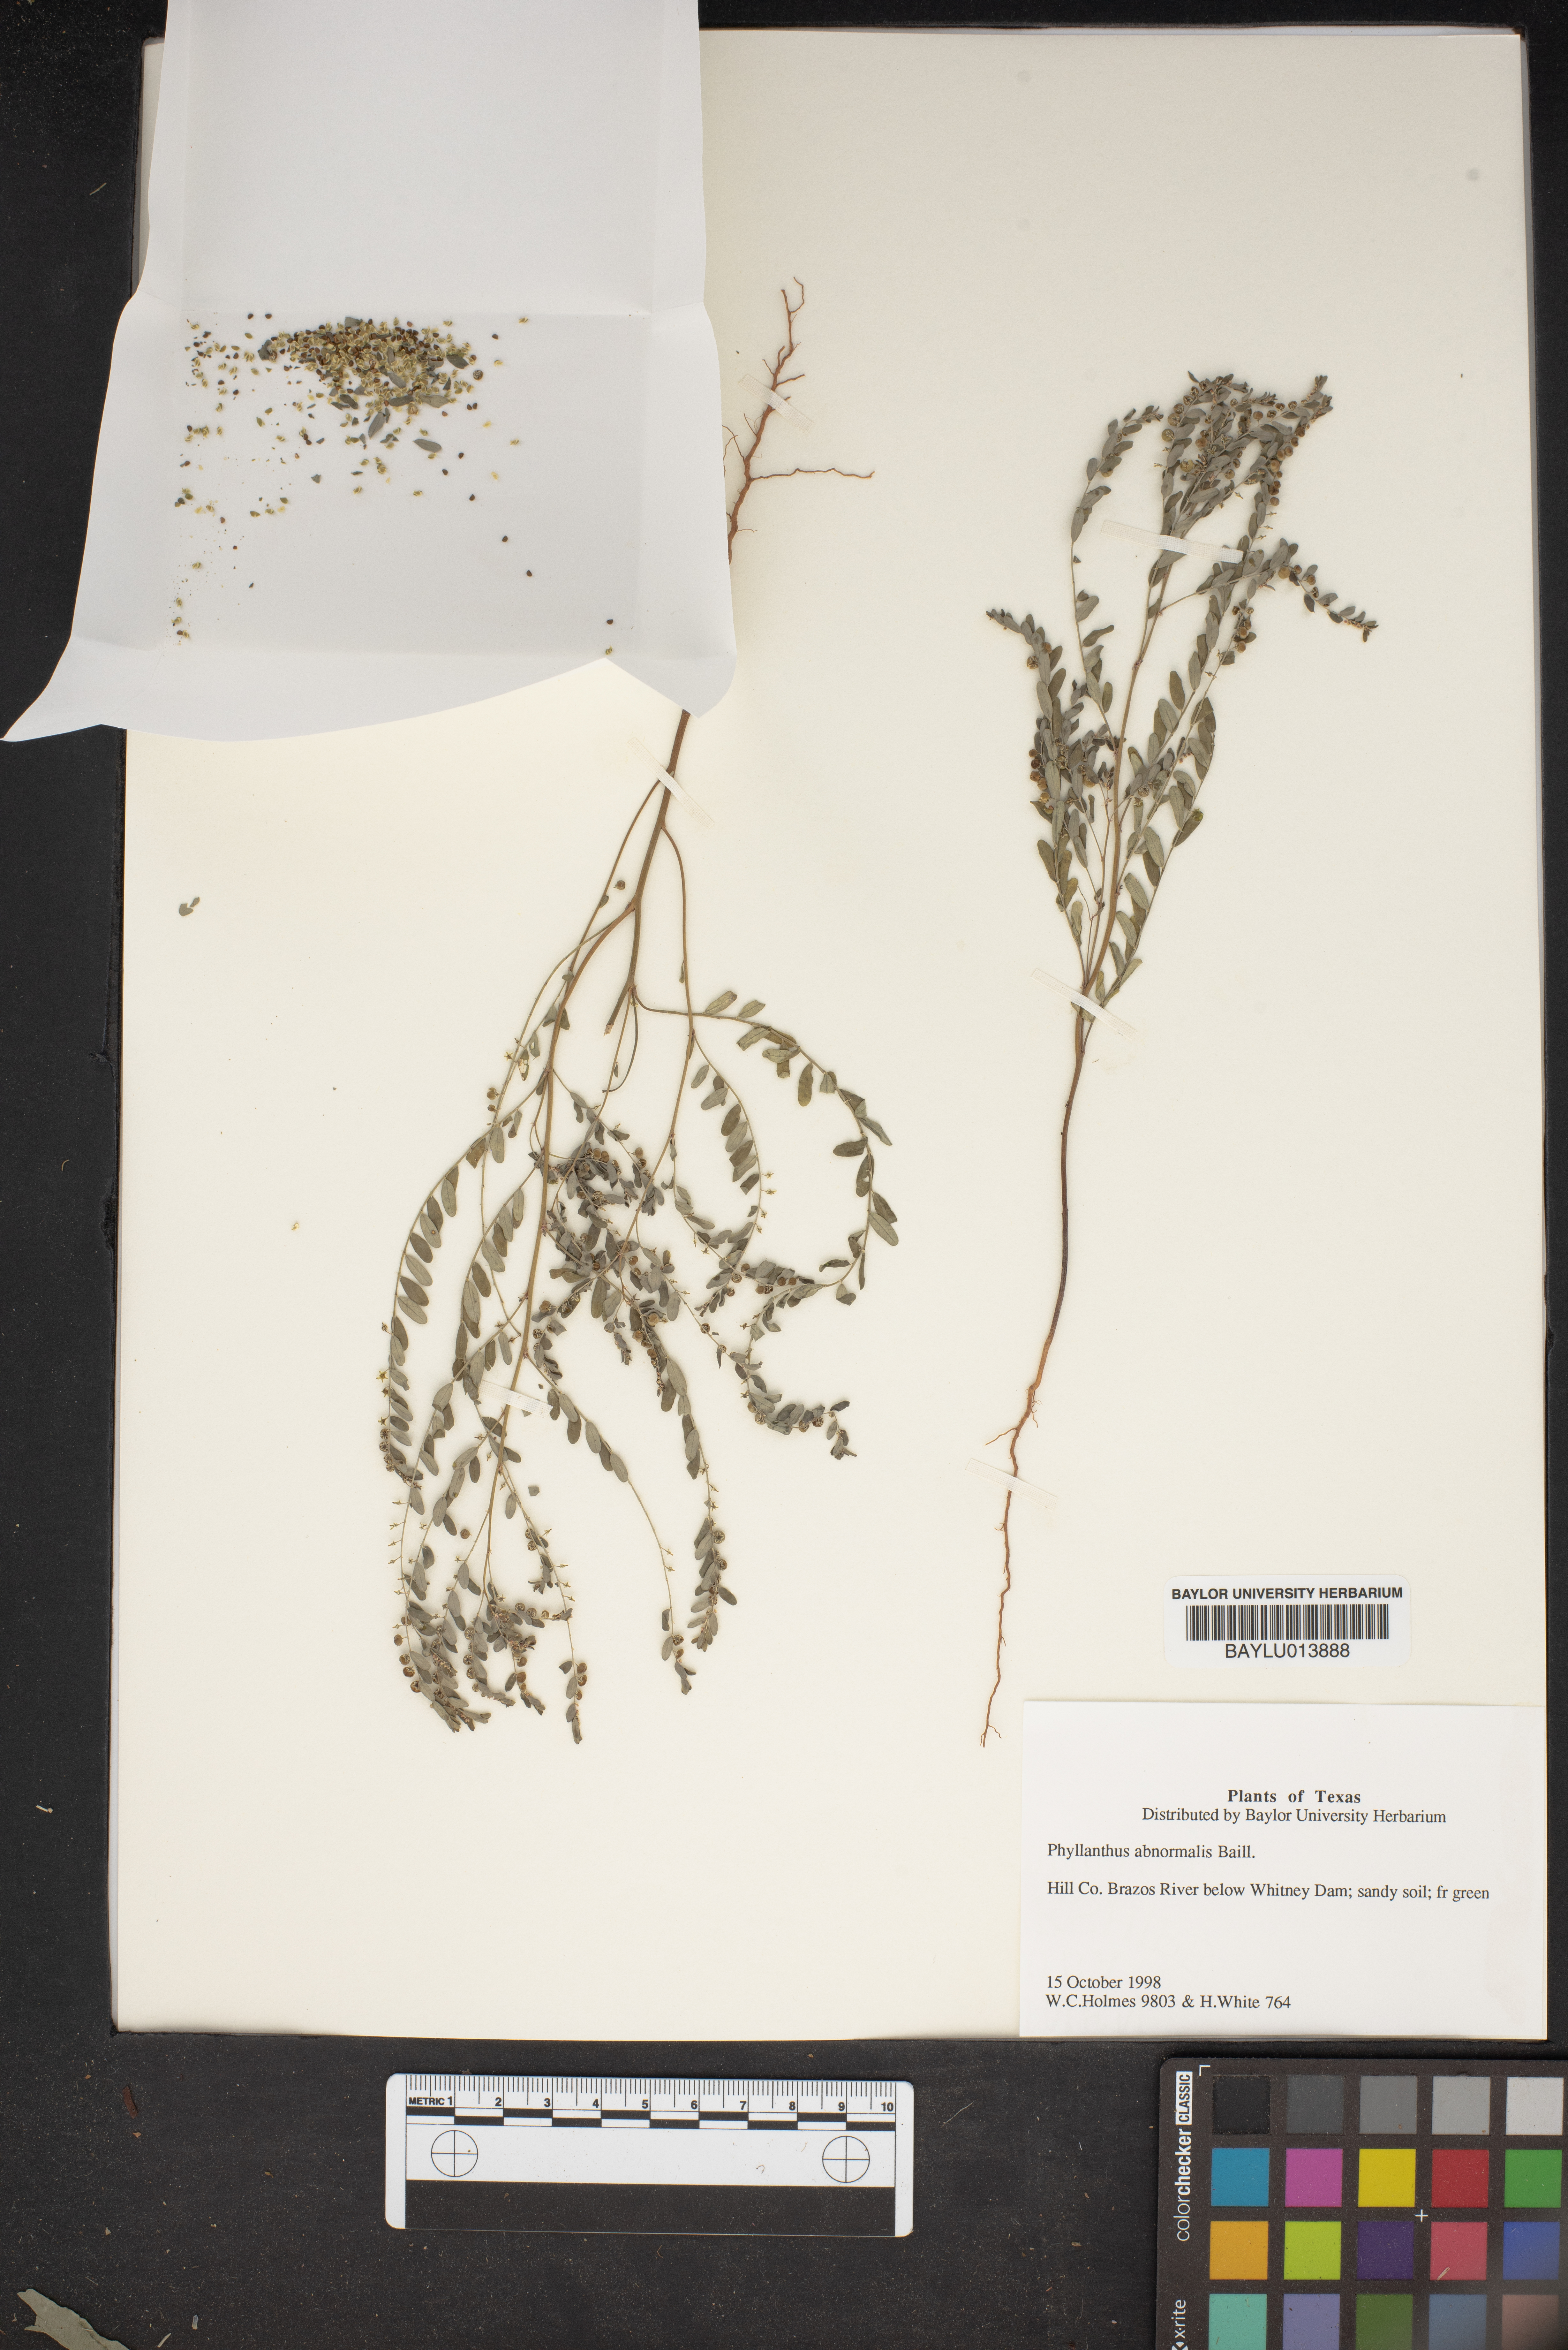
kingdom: Plantae
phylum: Tracheophyta
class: Magnoliopsida
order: Malpighiales
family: Phyllanthaceae
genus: Phyllanthus
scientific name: Phyllanthus abnormis
